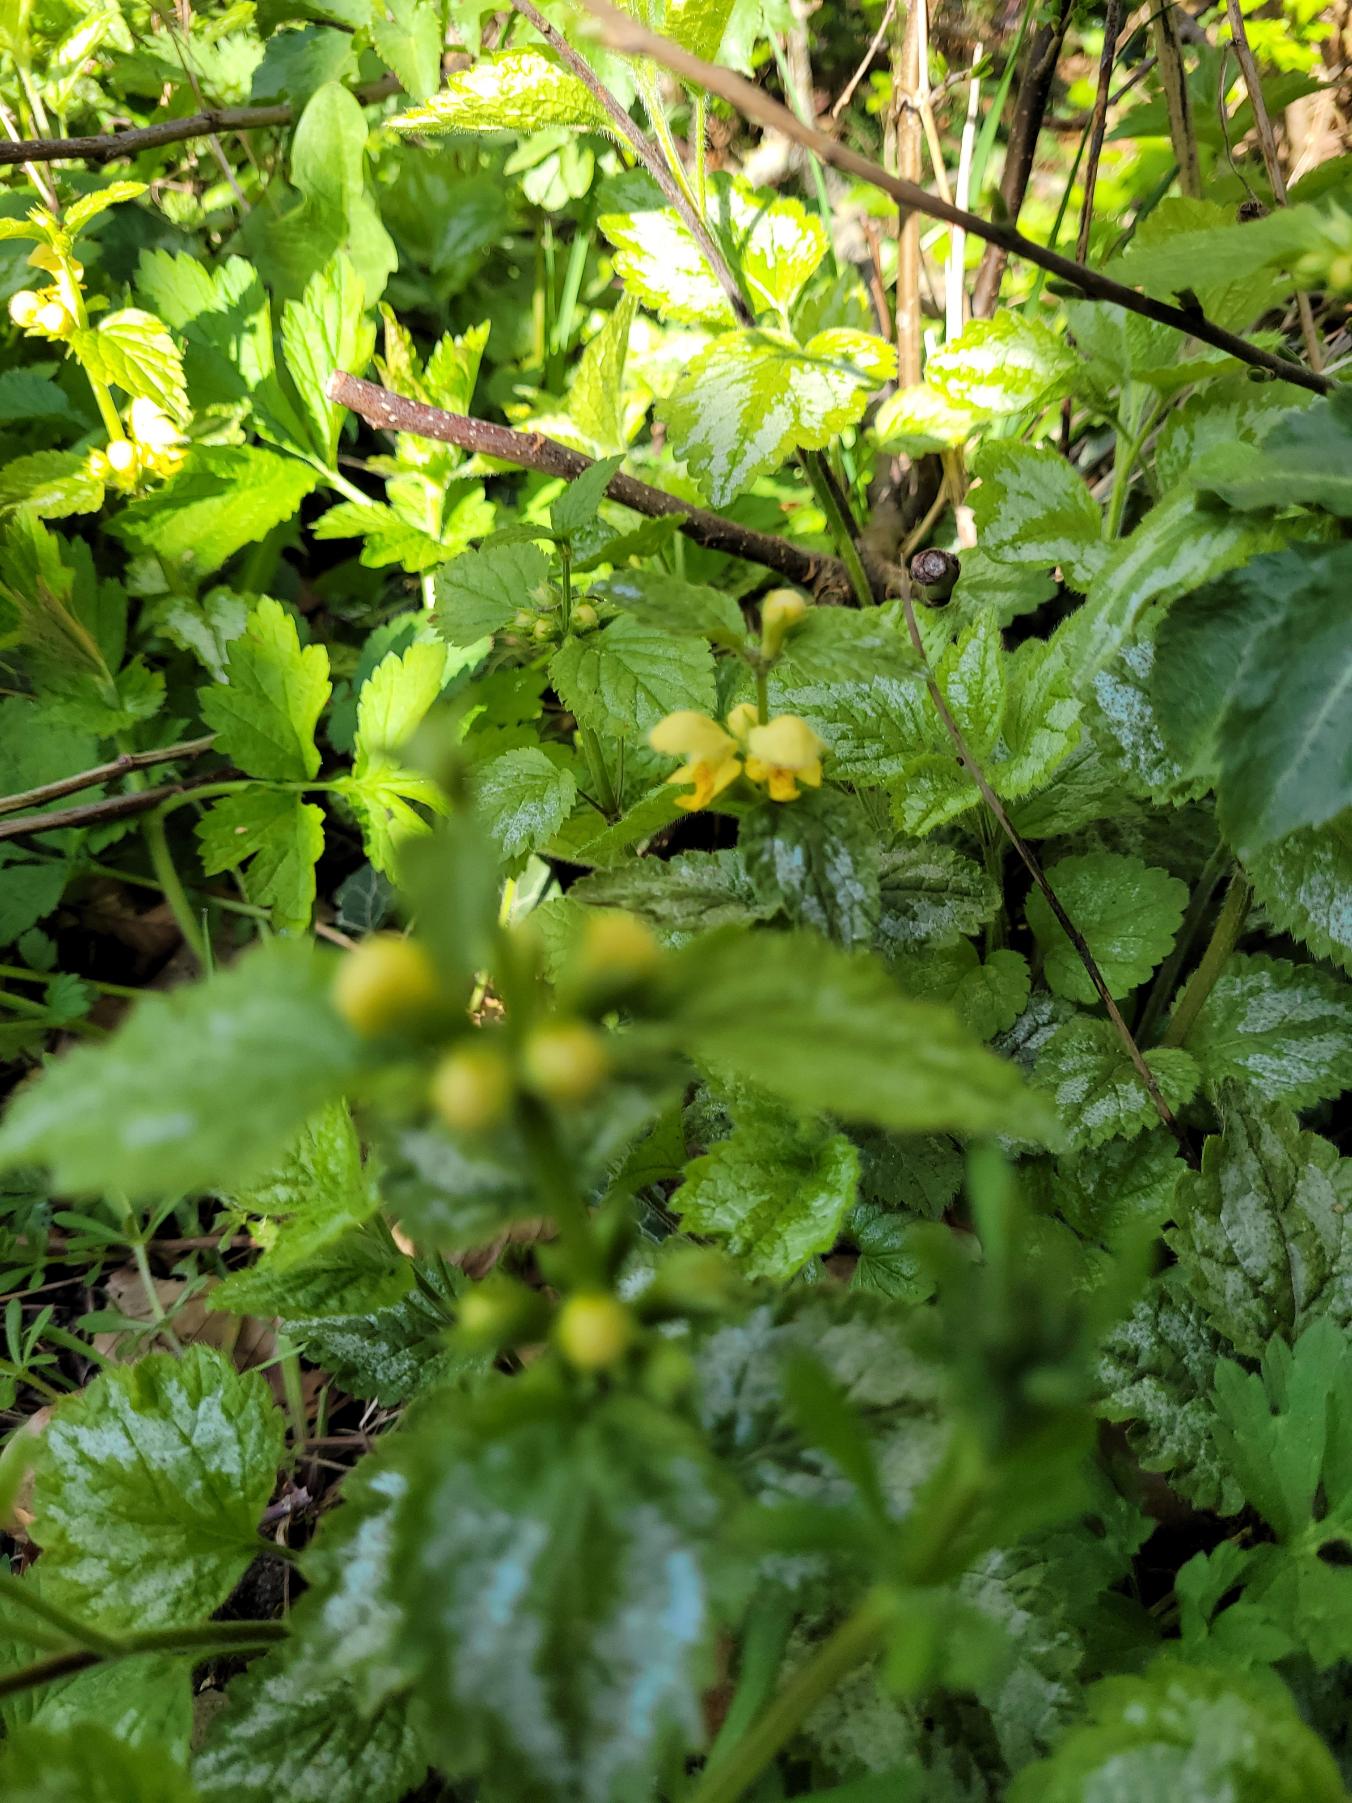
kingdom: Plantae
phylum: Tracheophyta
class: Magnoliopsida
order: Lamiales
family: Lamiaceae
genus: Lamium
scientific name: Lamium galeobdolon
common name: Have-guldnælde
